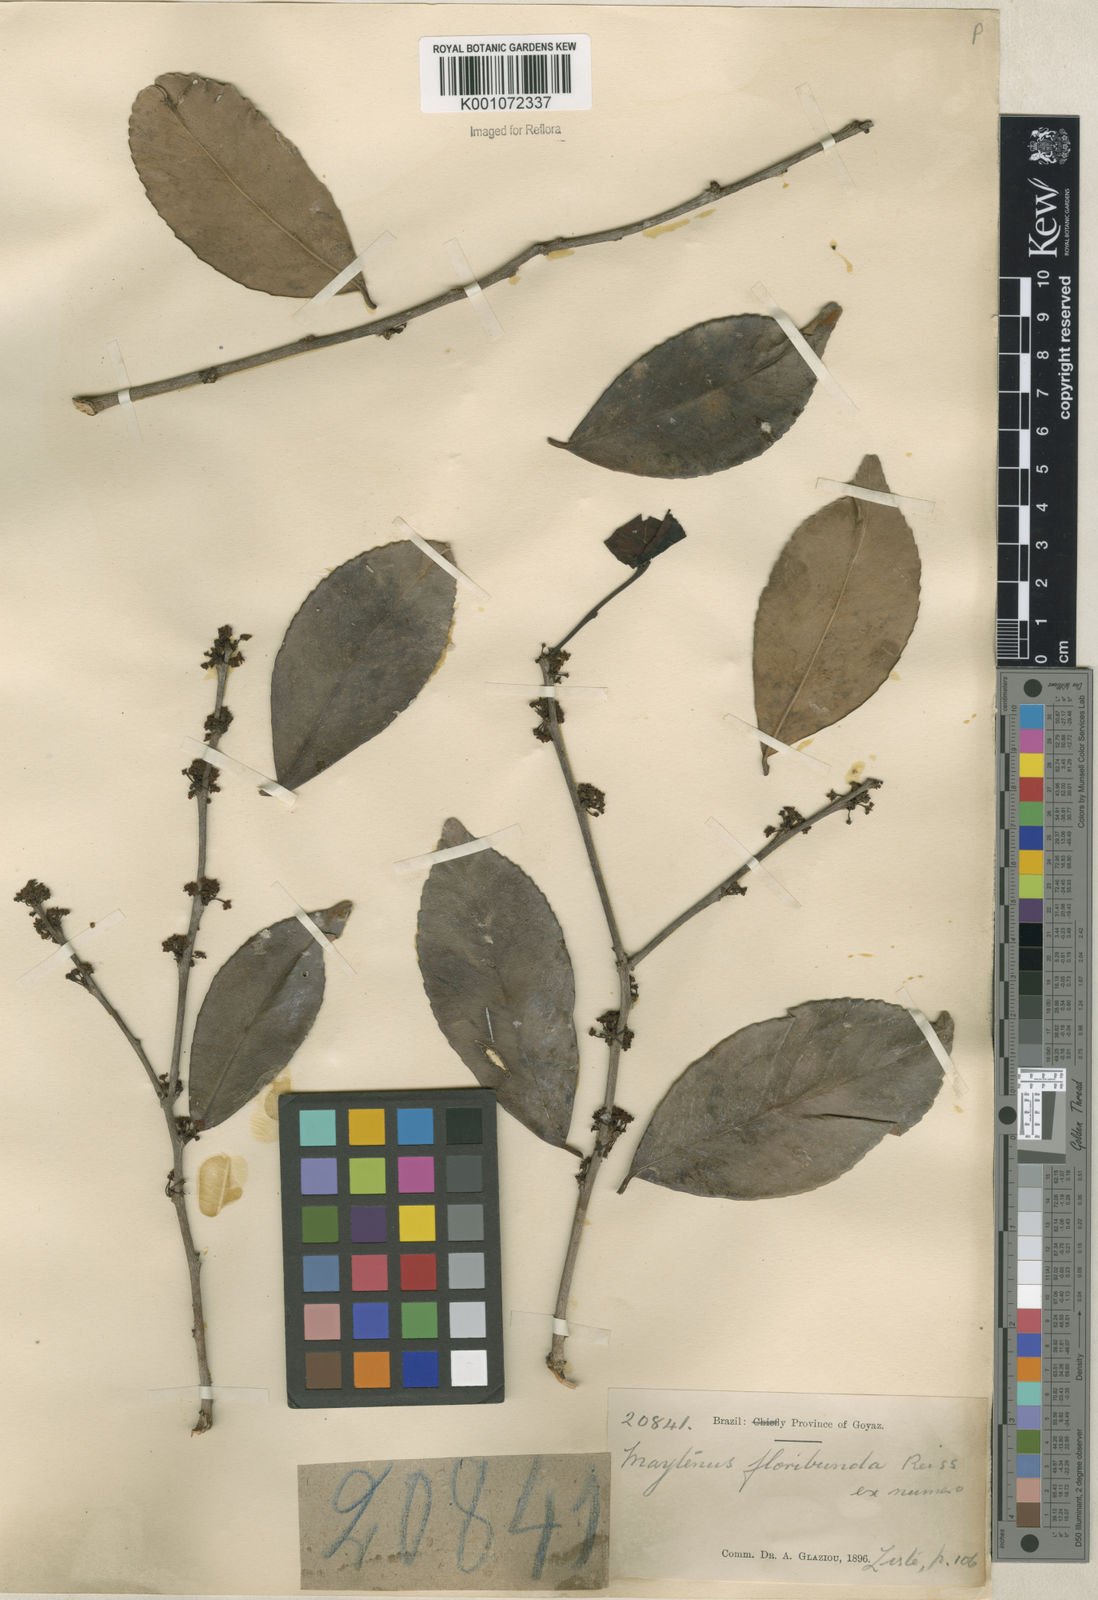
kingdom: Plantae
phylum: Tracheophyta
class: Magnoliopsida
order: Celastrales
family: Celastraceae
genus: Monteverdia
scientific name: Monteverdia floribunda
